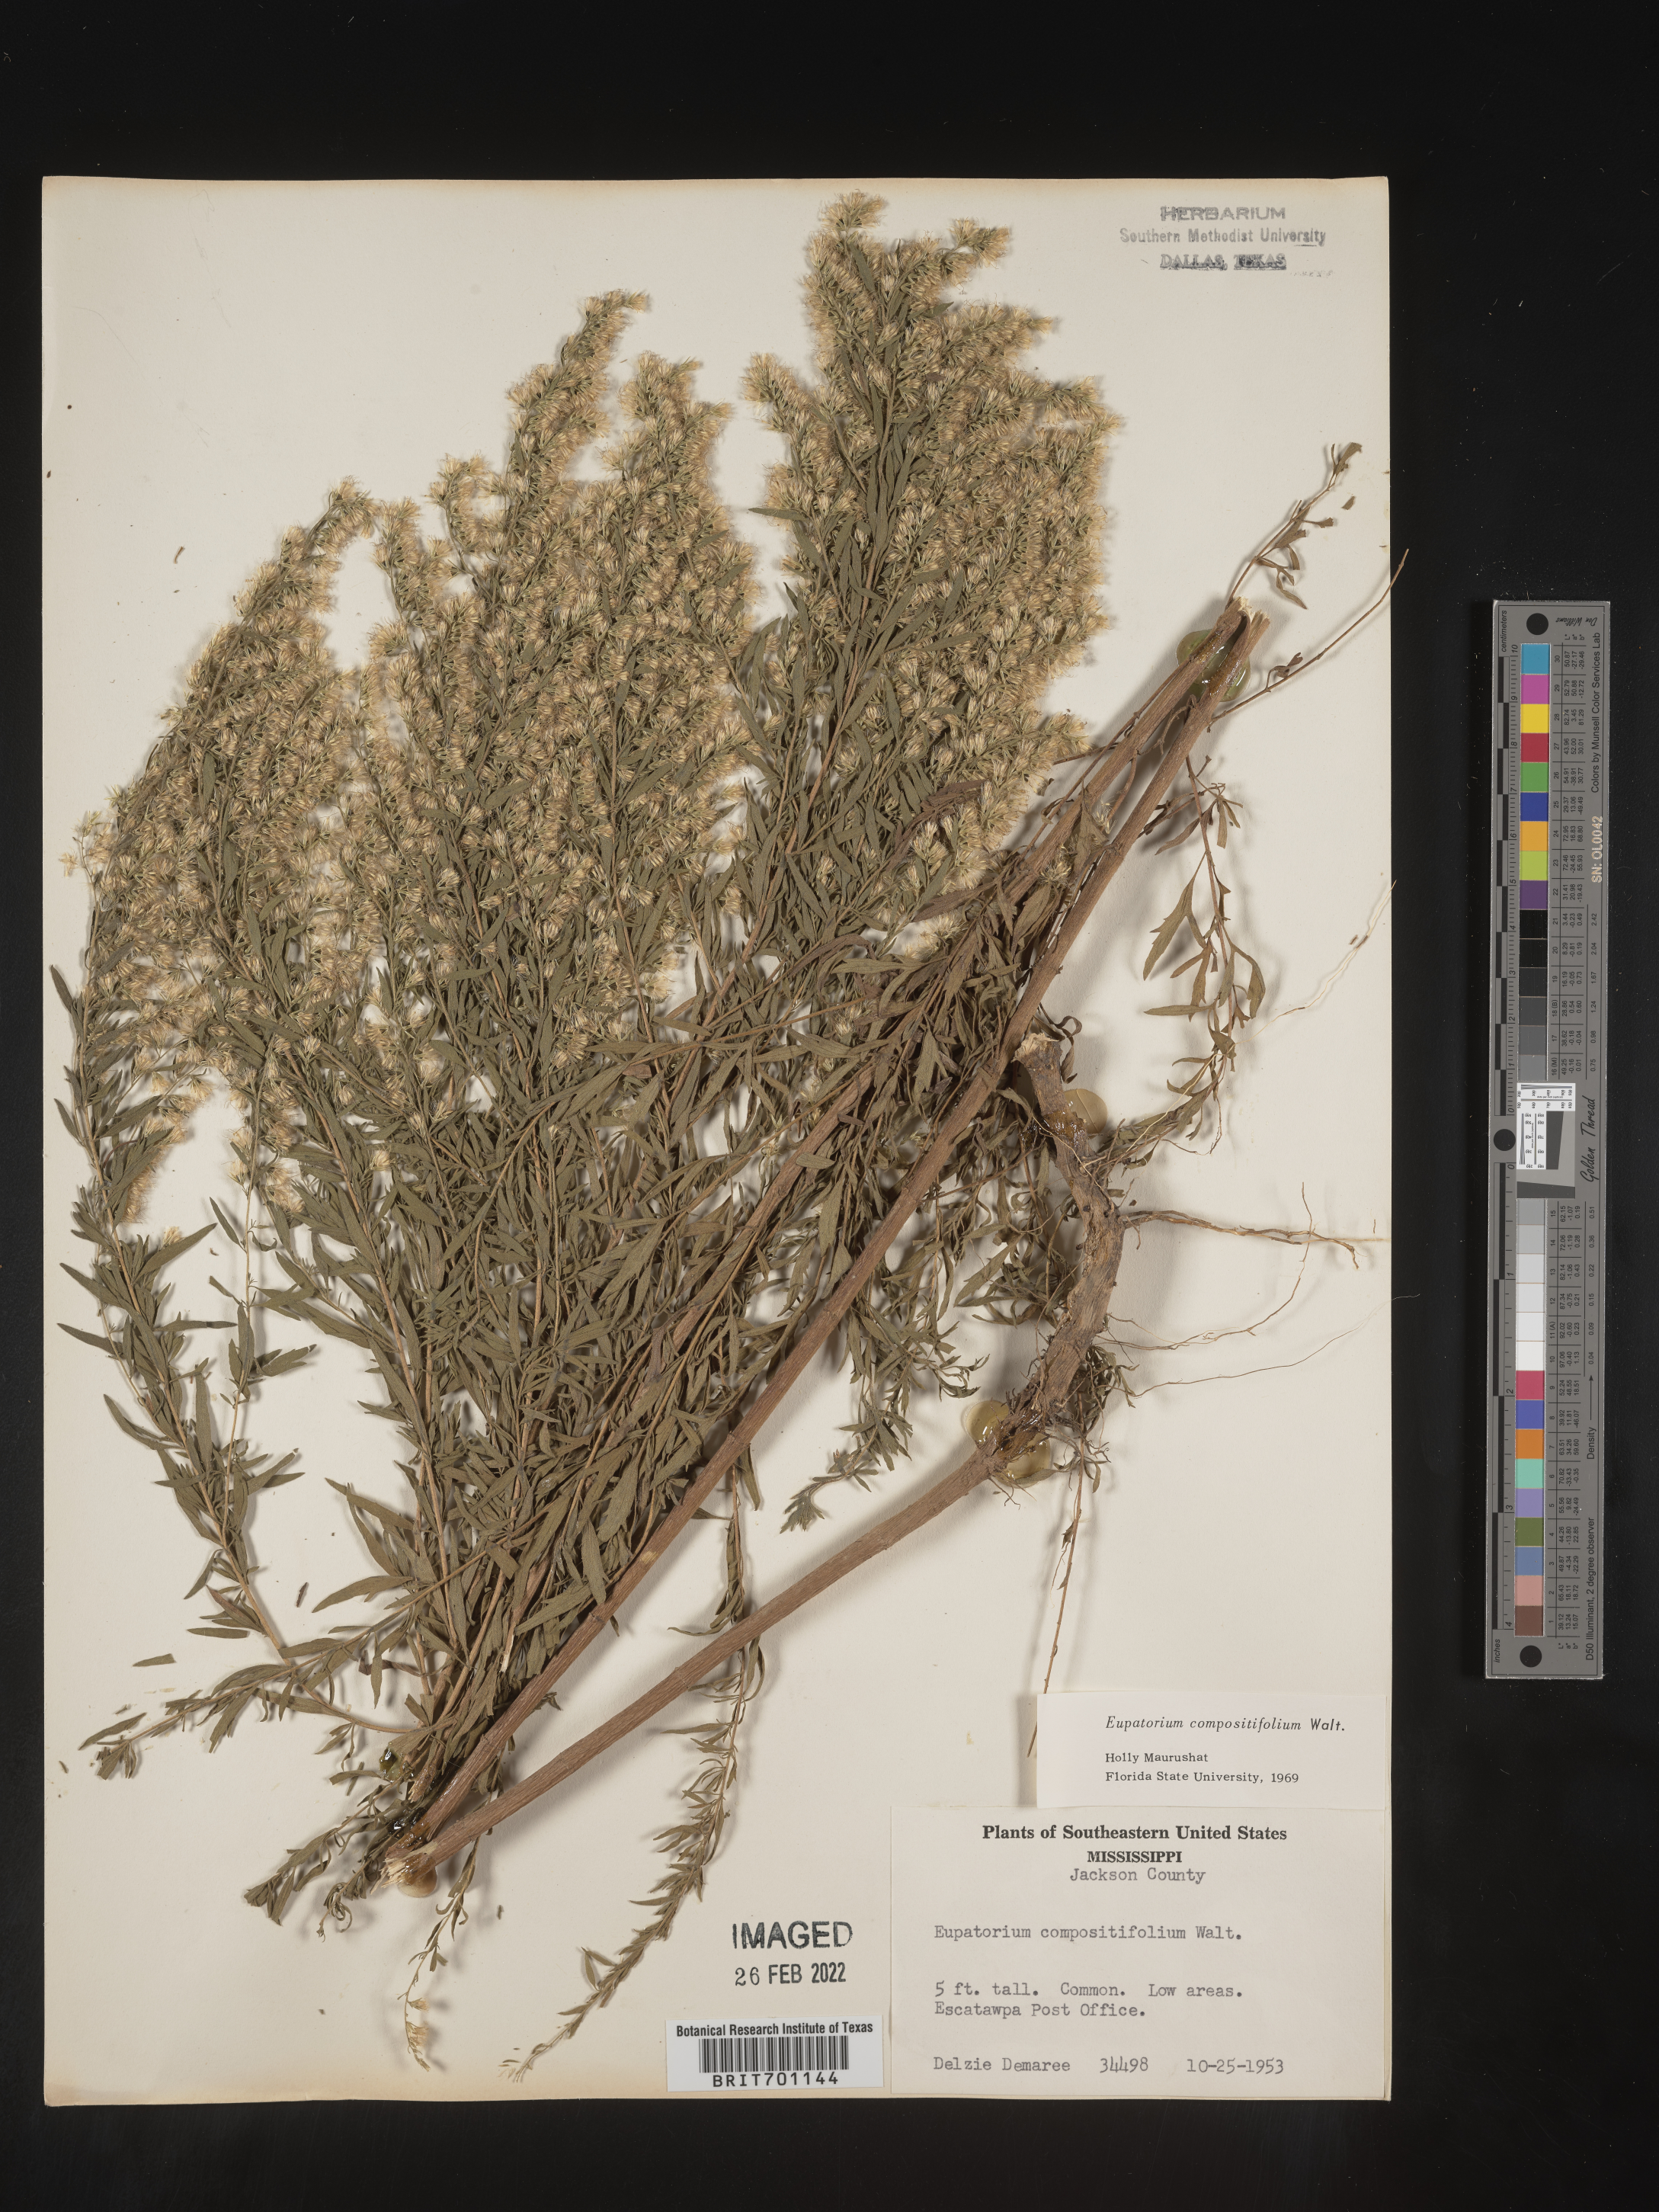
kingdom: Plantae
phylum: Tracheophyta
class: Magnoliopsida
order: Asterales
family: Asteraceae
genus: Eupatorium
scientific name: Eupatorium compositifolium
